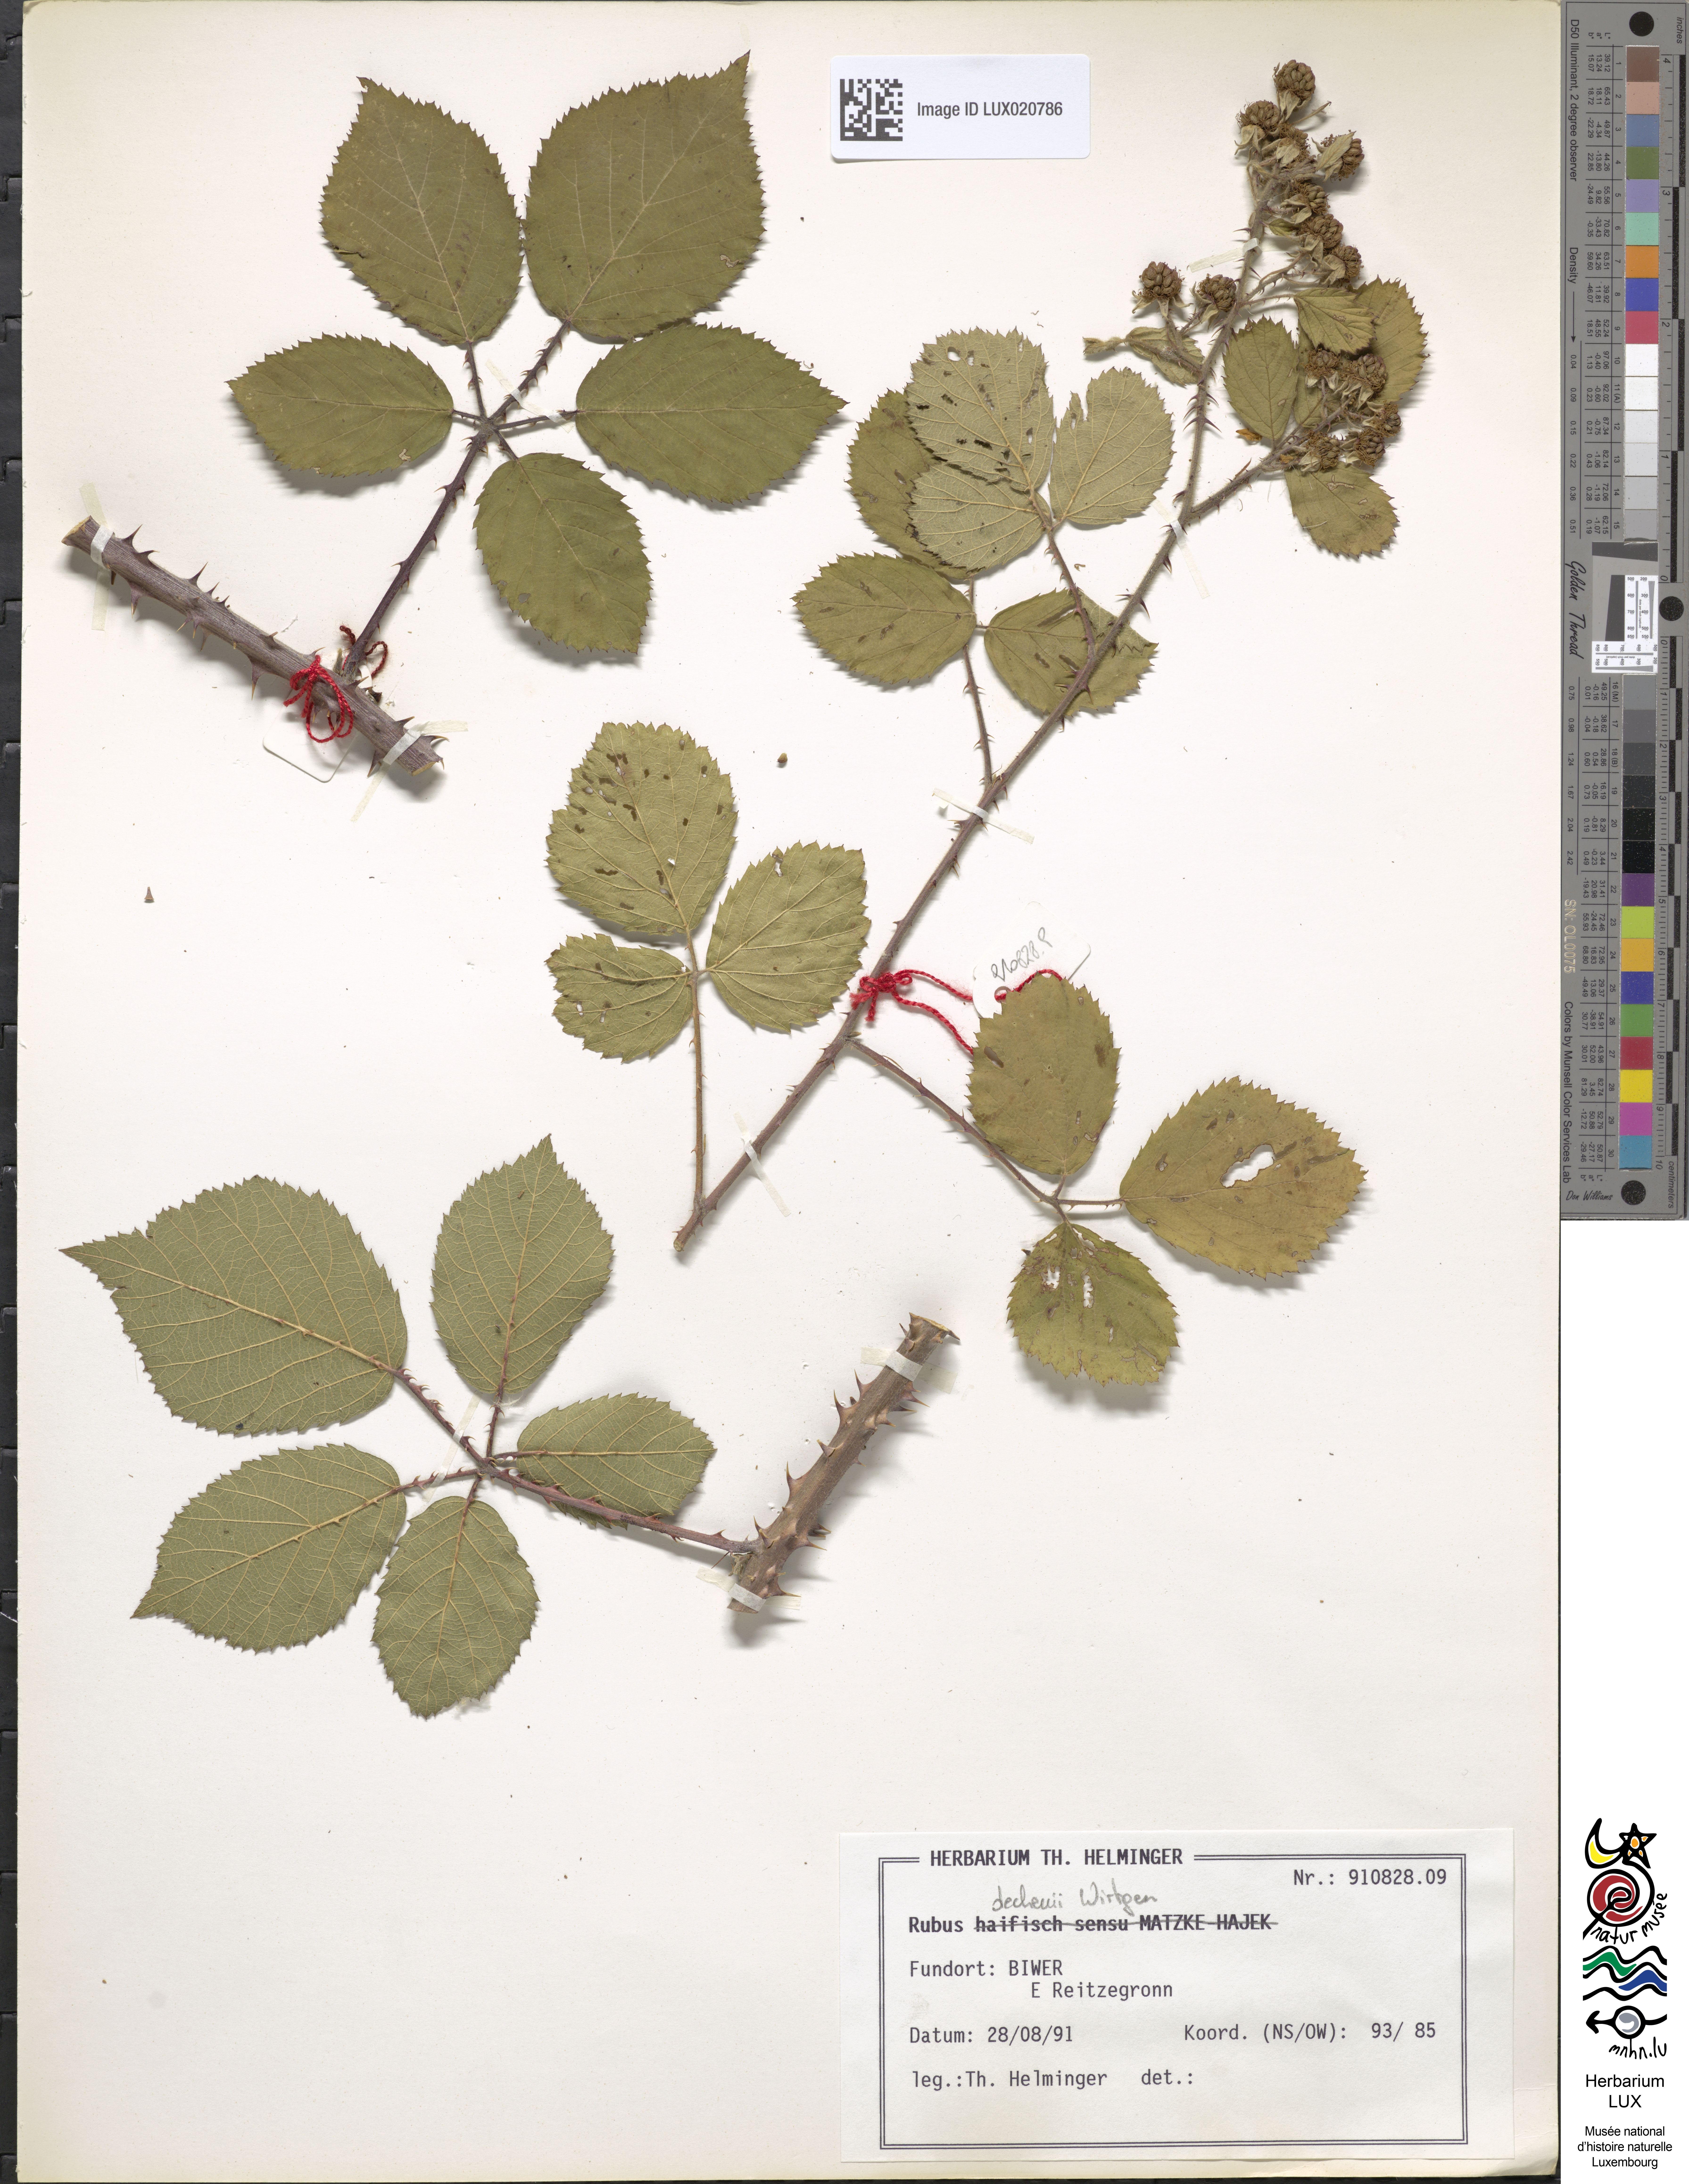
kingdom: Plantae
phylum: Tracheophyta
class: Magnoliopsida
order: Rosales
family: Rosaceae
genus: Rubus
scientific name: Rubus dechenii
